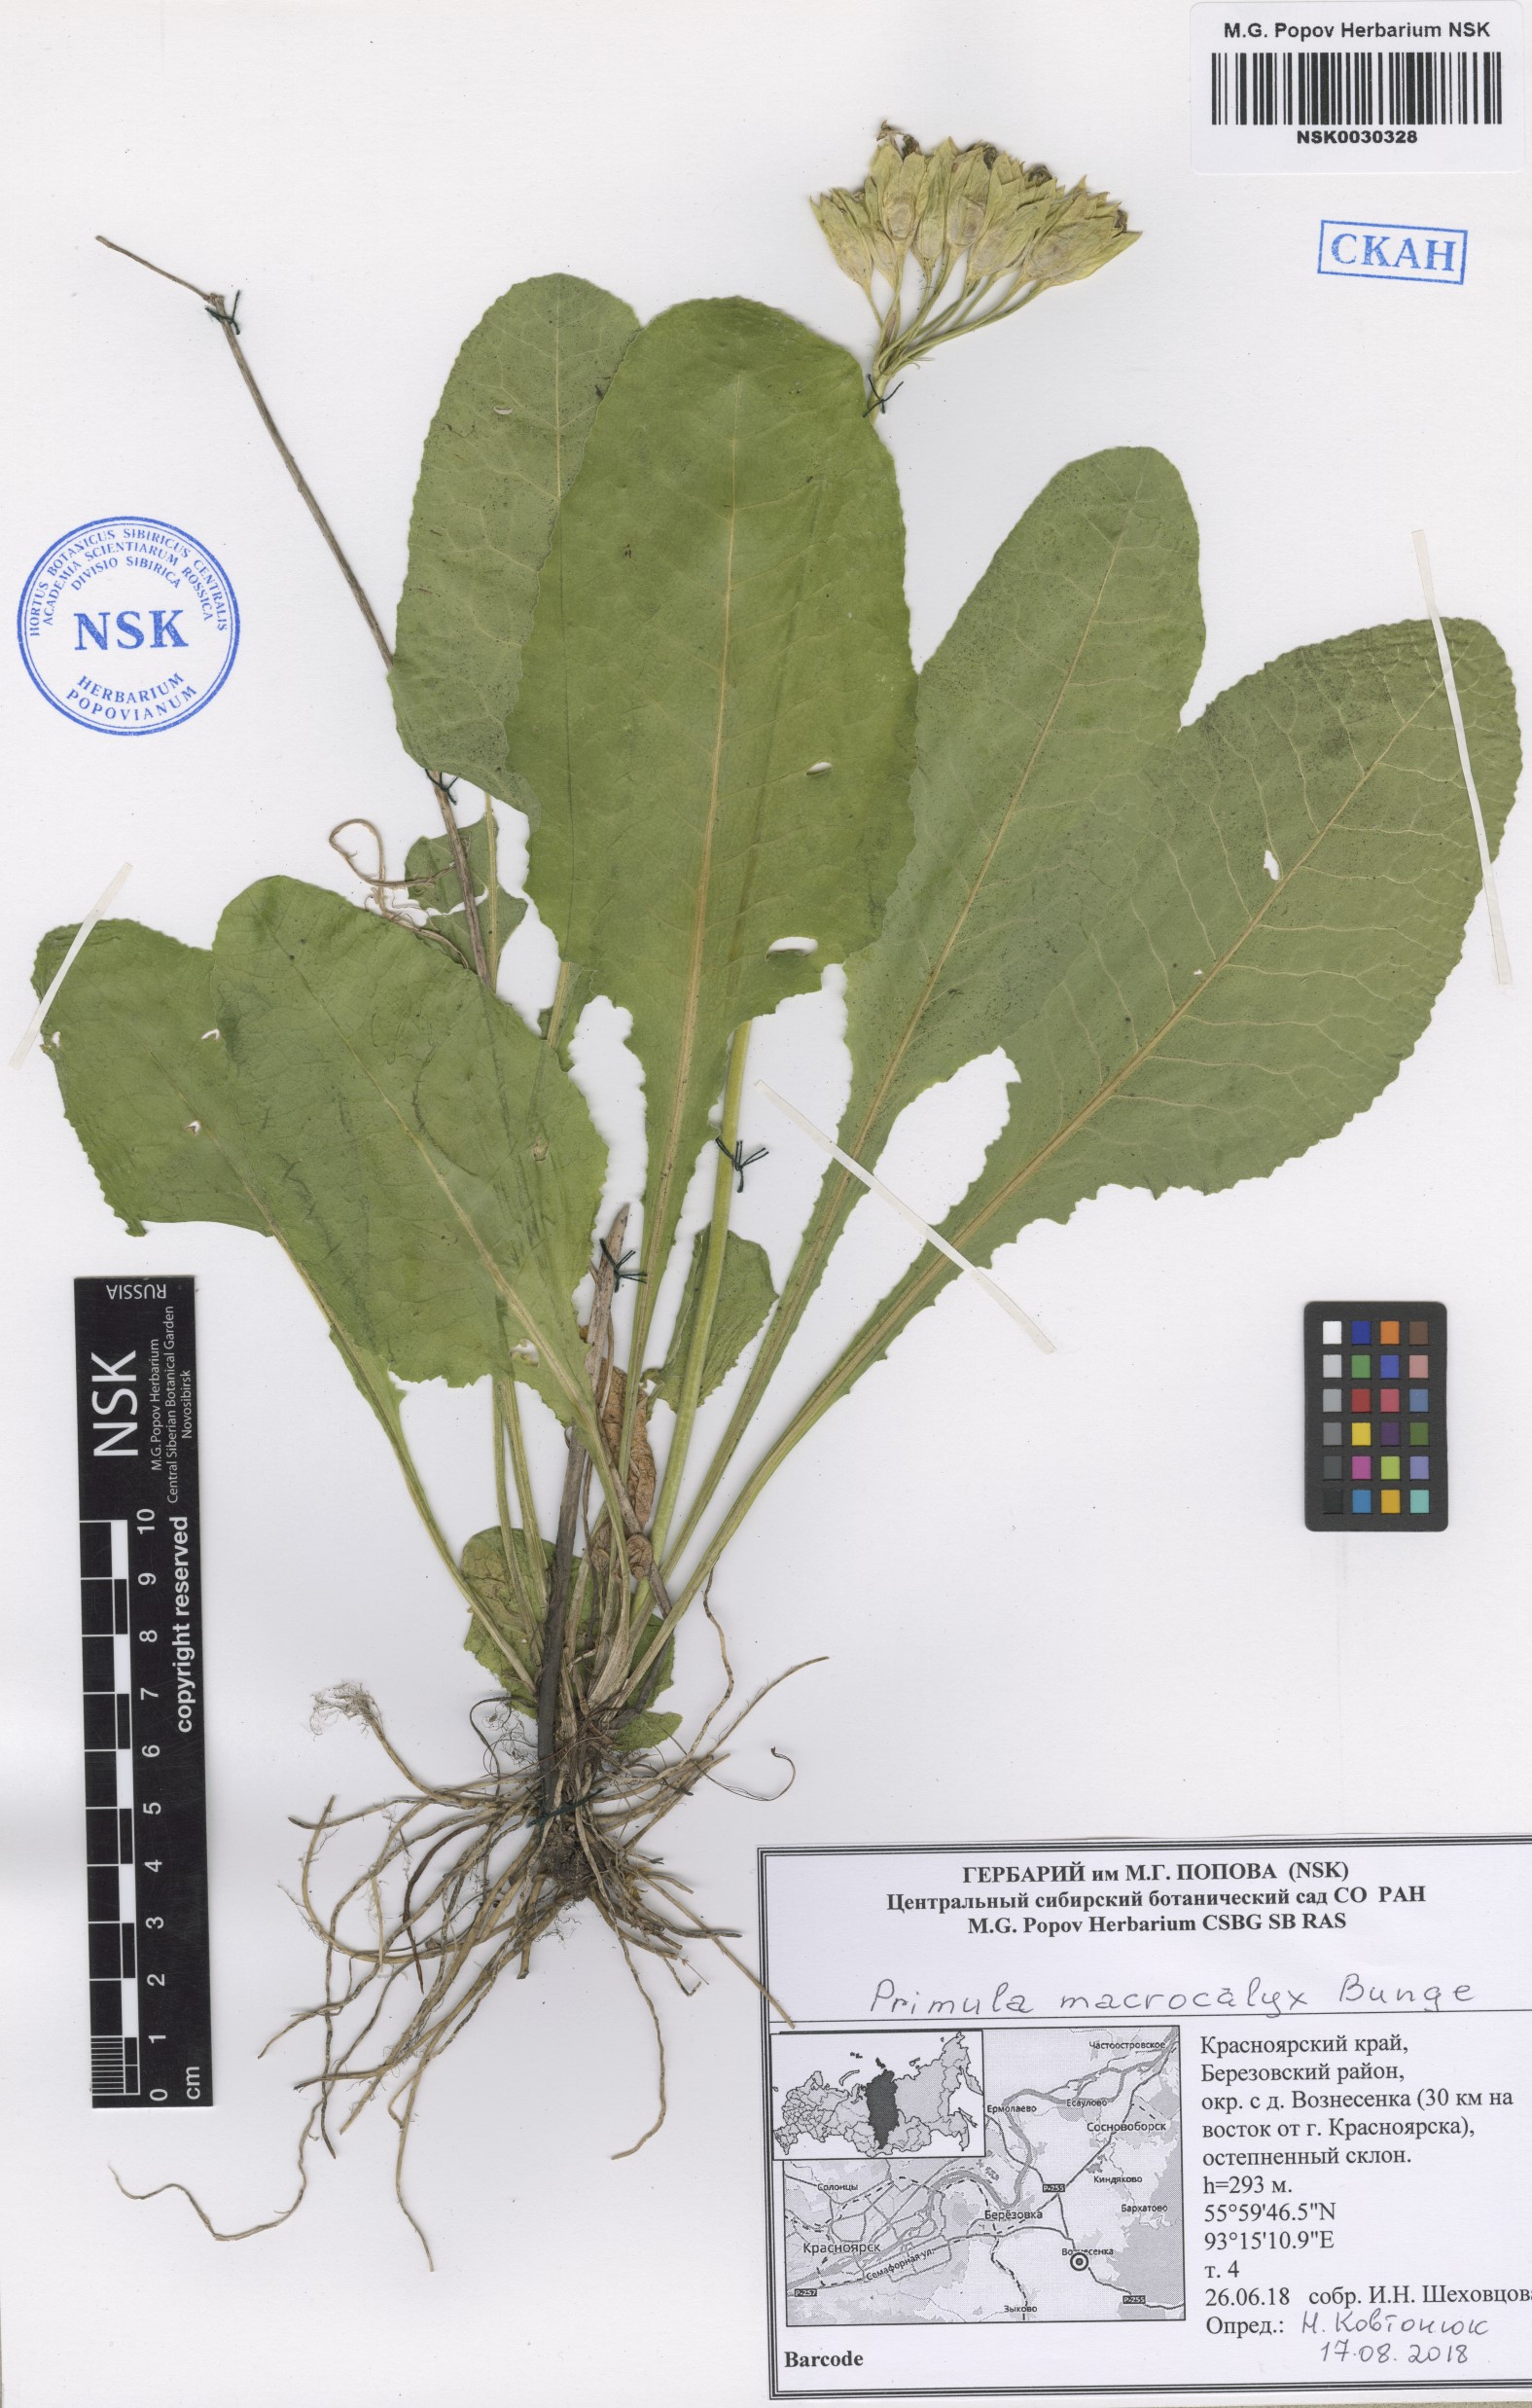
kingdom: Plantae
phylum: Tracheophyta
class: Magnoliopsida
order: Ericales
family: Primulaceae
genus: Primula
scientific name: Primula veris
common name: Cowslip
